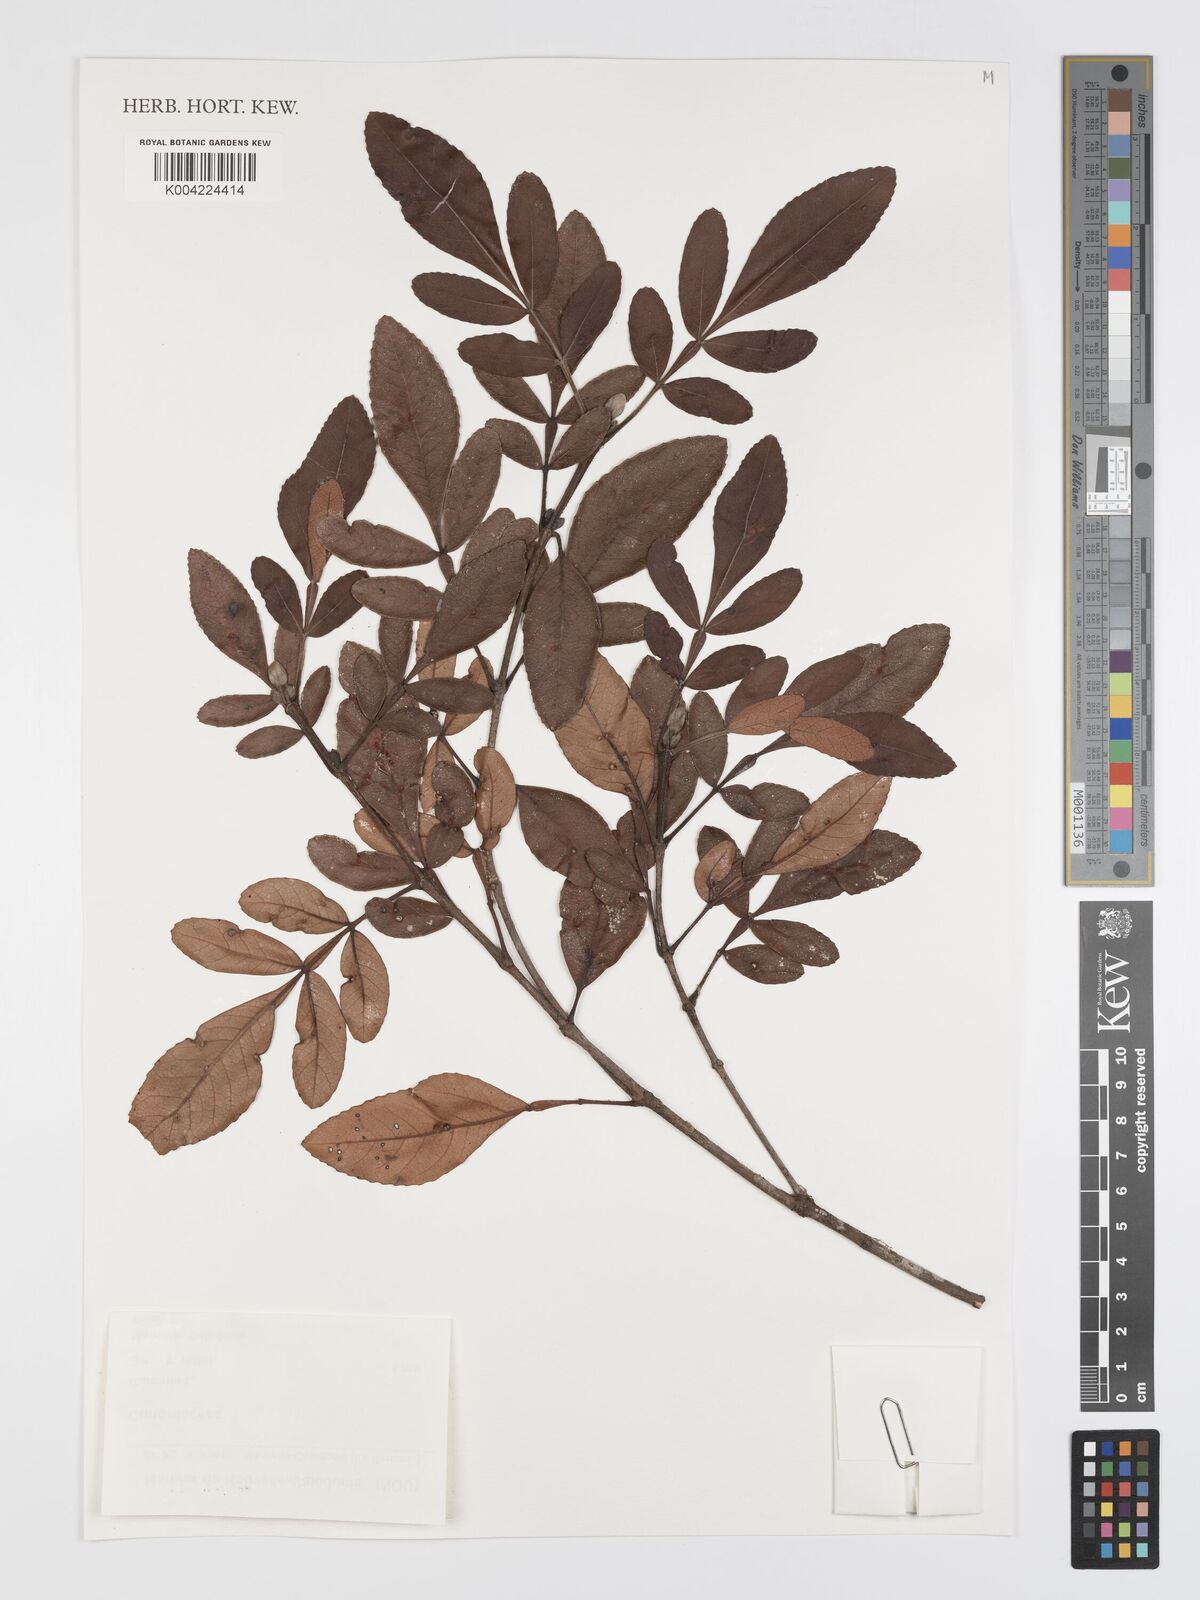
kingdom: Plantae
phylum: Tracheophyta
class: Magnoliopsida
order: Oxalidales
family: Cunoniaceae
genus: Cunonia
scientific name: Cunonia
